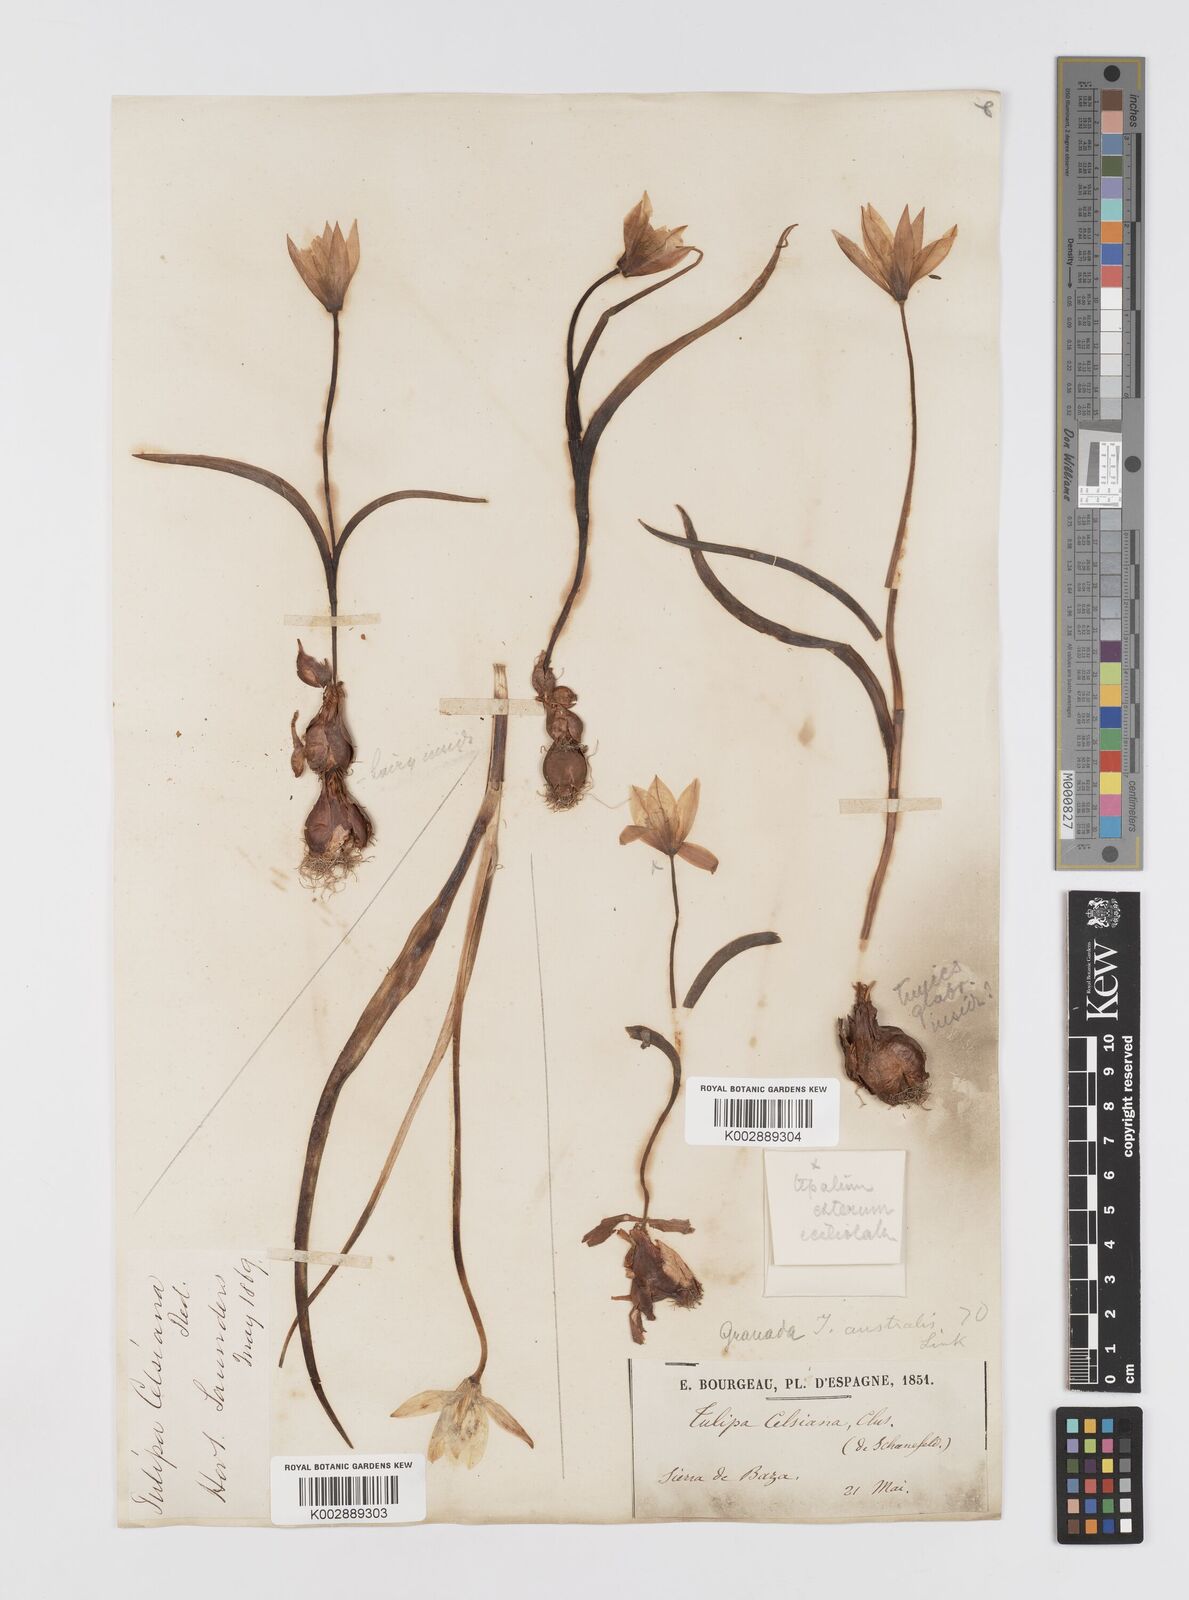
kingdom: Plantae
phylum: Tracheophyta
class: Liliopsida
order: Liliales
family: Liliaceae
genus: Tulipa
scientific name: Tulipa
